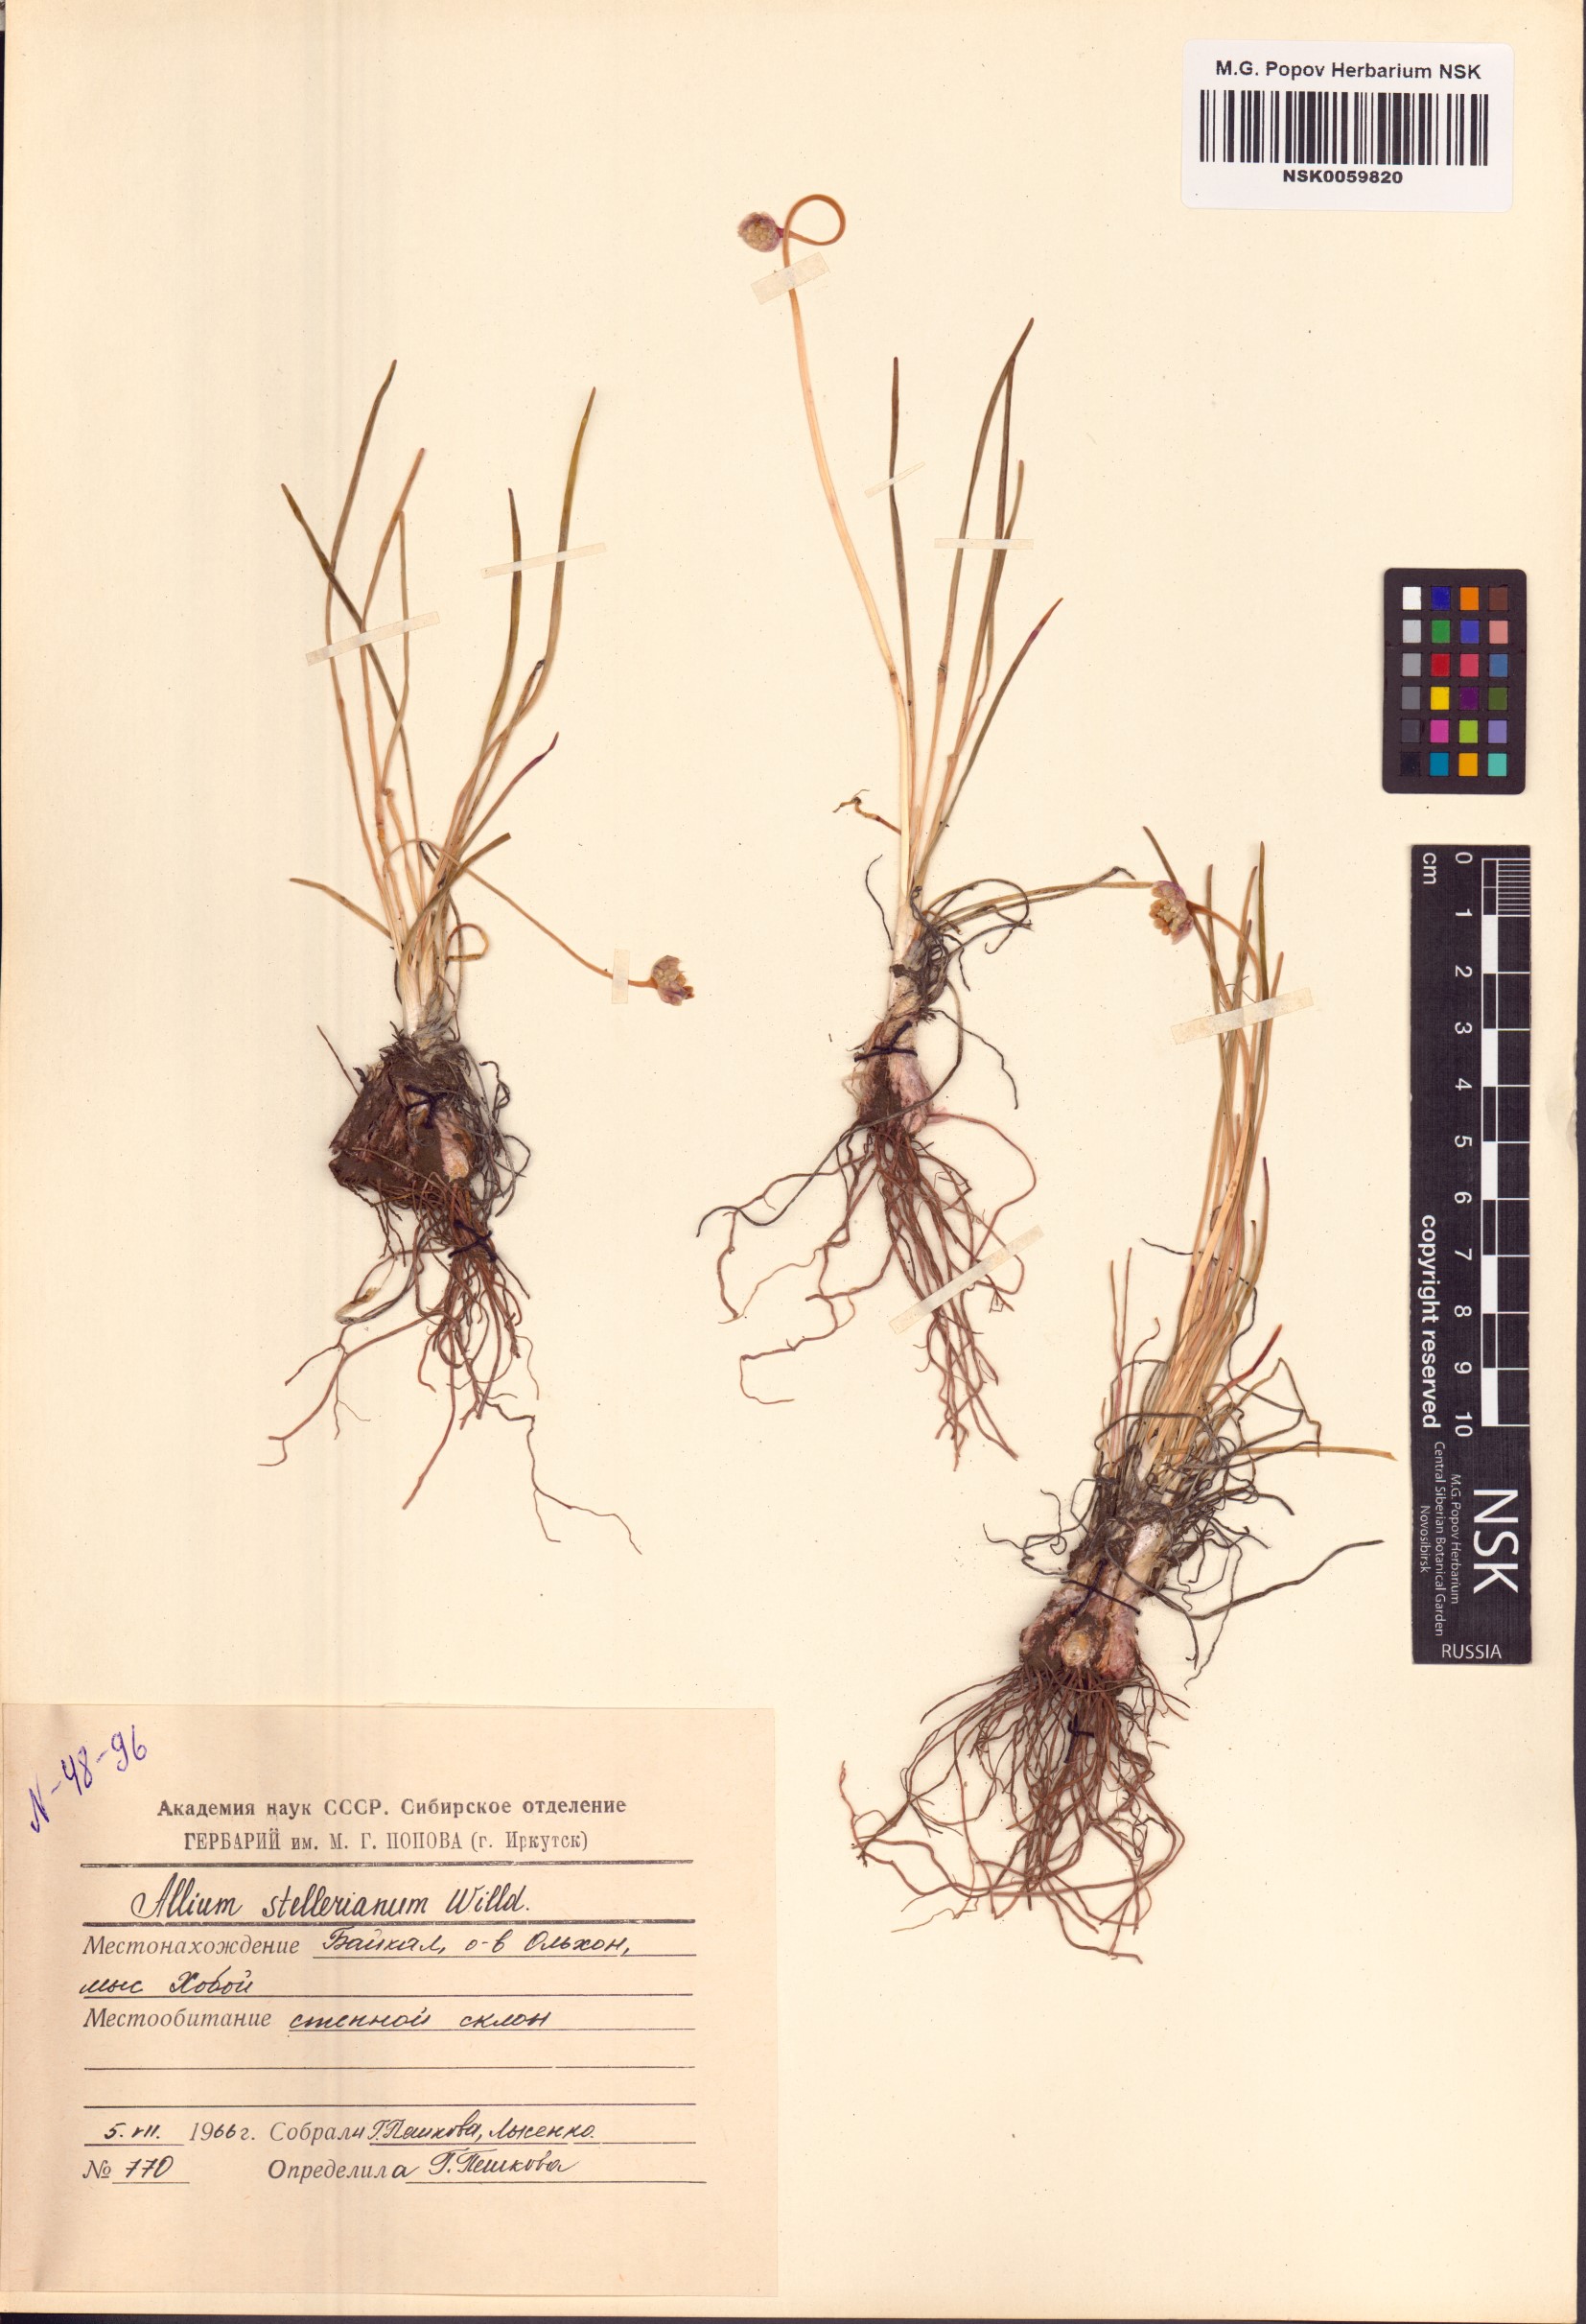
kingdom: Plantae
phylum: Tracheophyta
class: Liliopsida
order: Asparagales
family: Amaryllidaceae
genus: Allium
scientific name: Allium stellerianum
